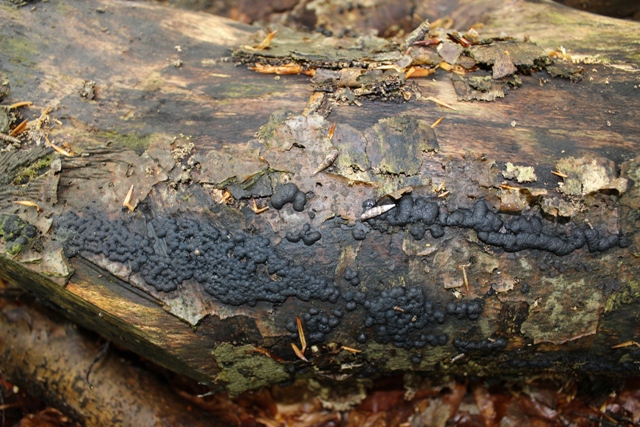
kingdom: Fungi
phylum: Ascomycota
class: Sordariomycetes
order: Xylariales
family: Hypoxylaceae
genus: Jackrogersella
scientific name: Jackrogersella cohaerens
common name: sammenflydende kulbær
